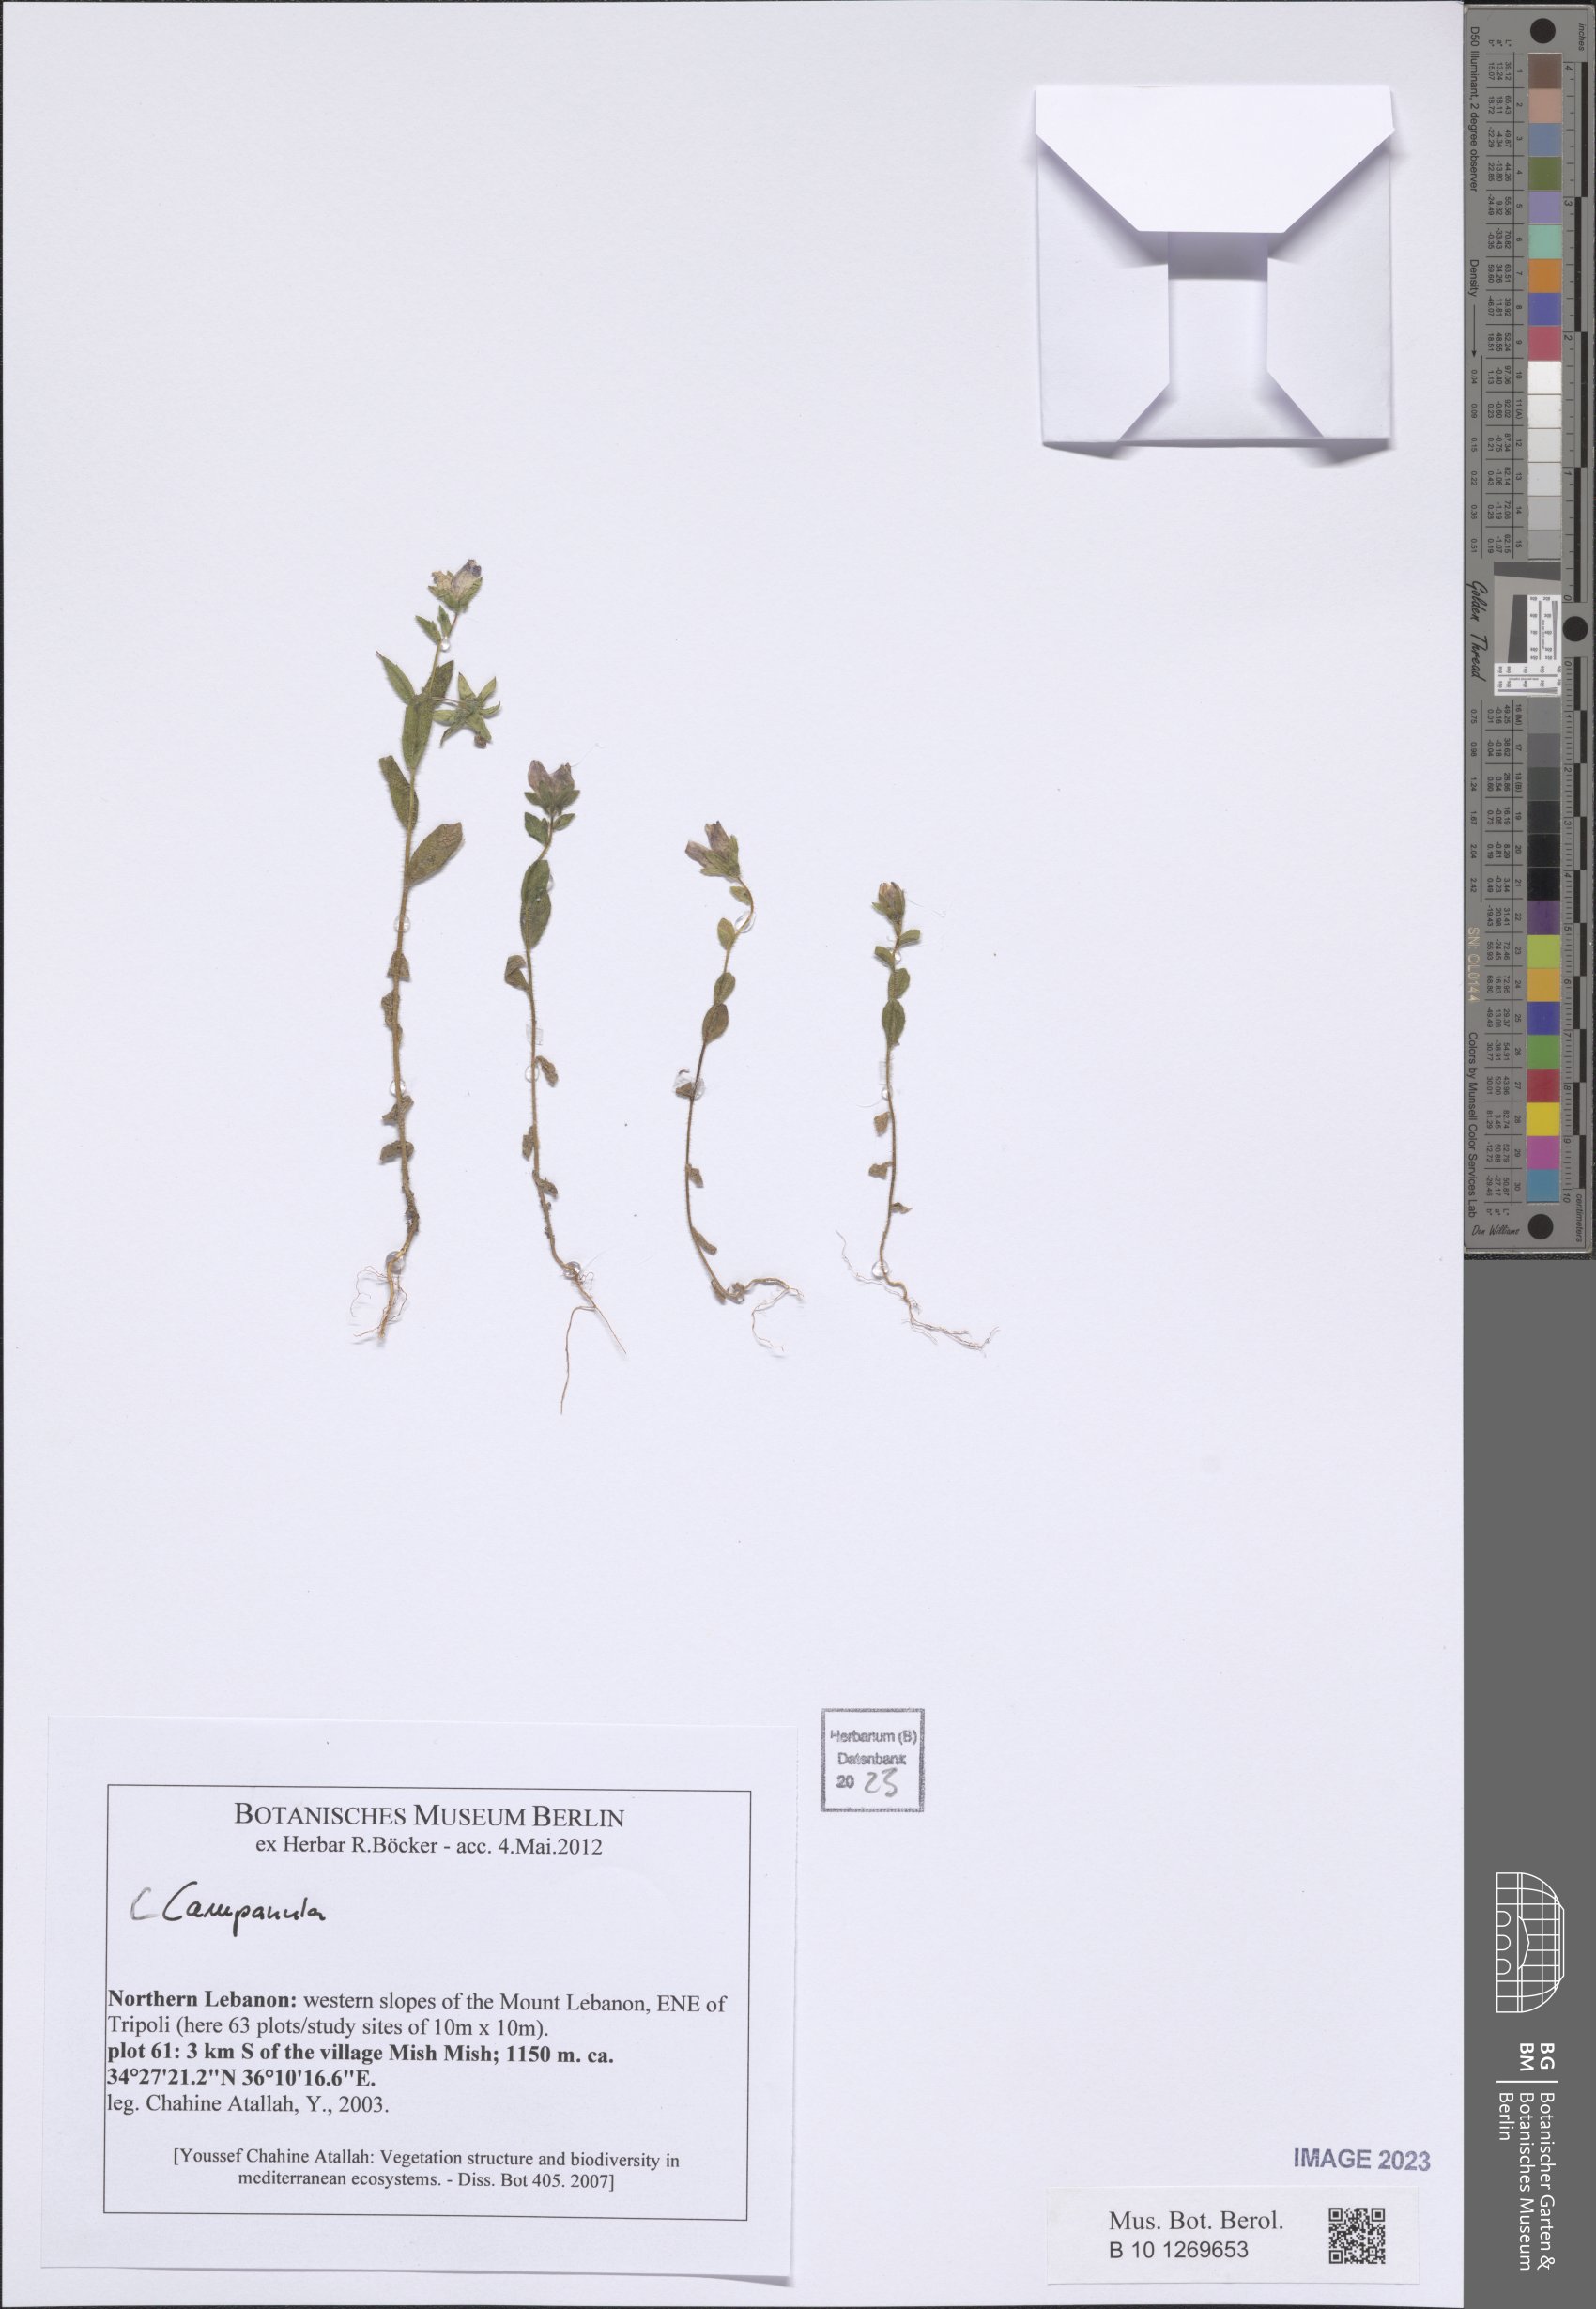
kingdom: Plantae
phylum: Tracheophyta
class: Magnoliopsida
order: Asterales
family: Campanulaceae
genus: Campanula
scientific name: Campanula
